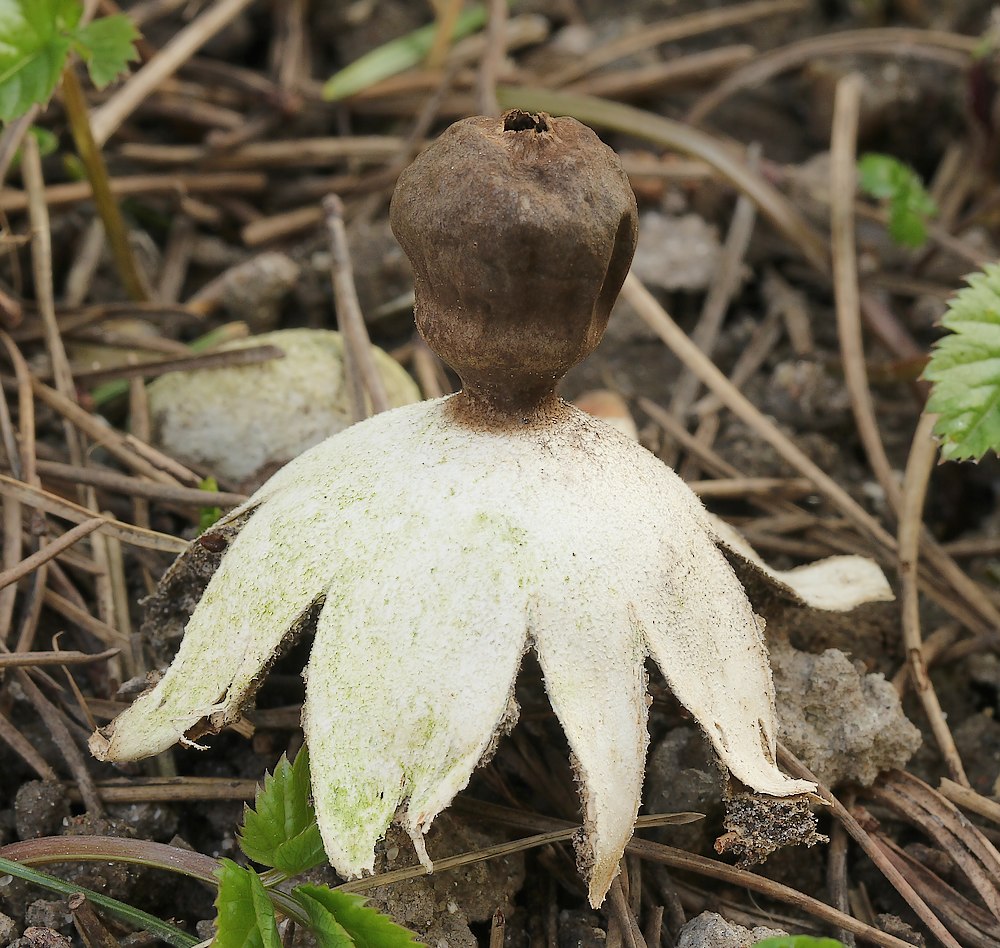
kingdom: Fungi
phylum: Basidiomycota
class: Agaricomycetes
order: Geastrales
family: Geastraceae
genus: Geastrum
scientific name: Geastrum coronatum
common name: mørk stjernebold
